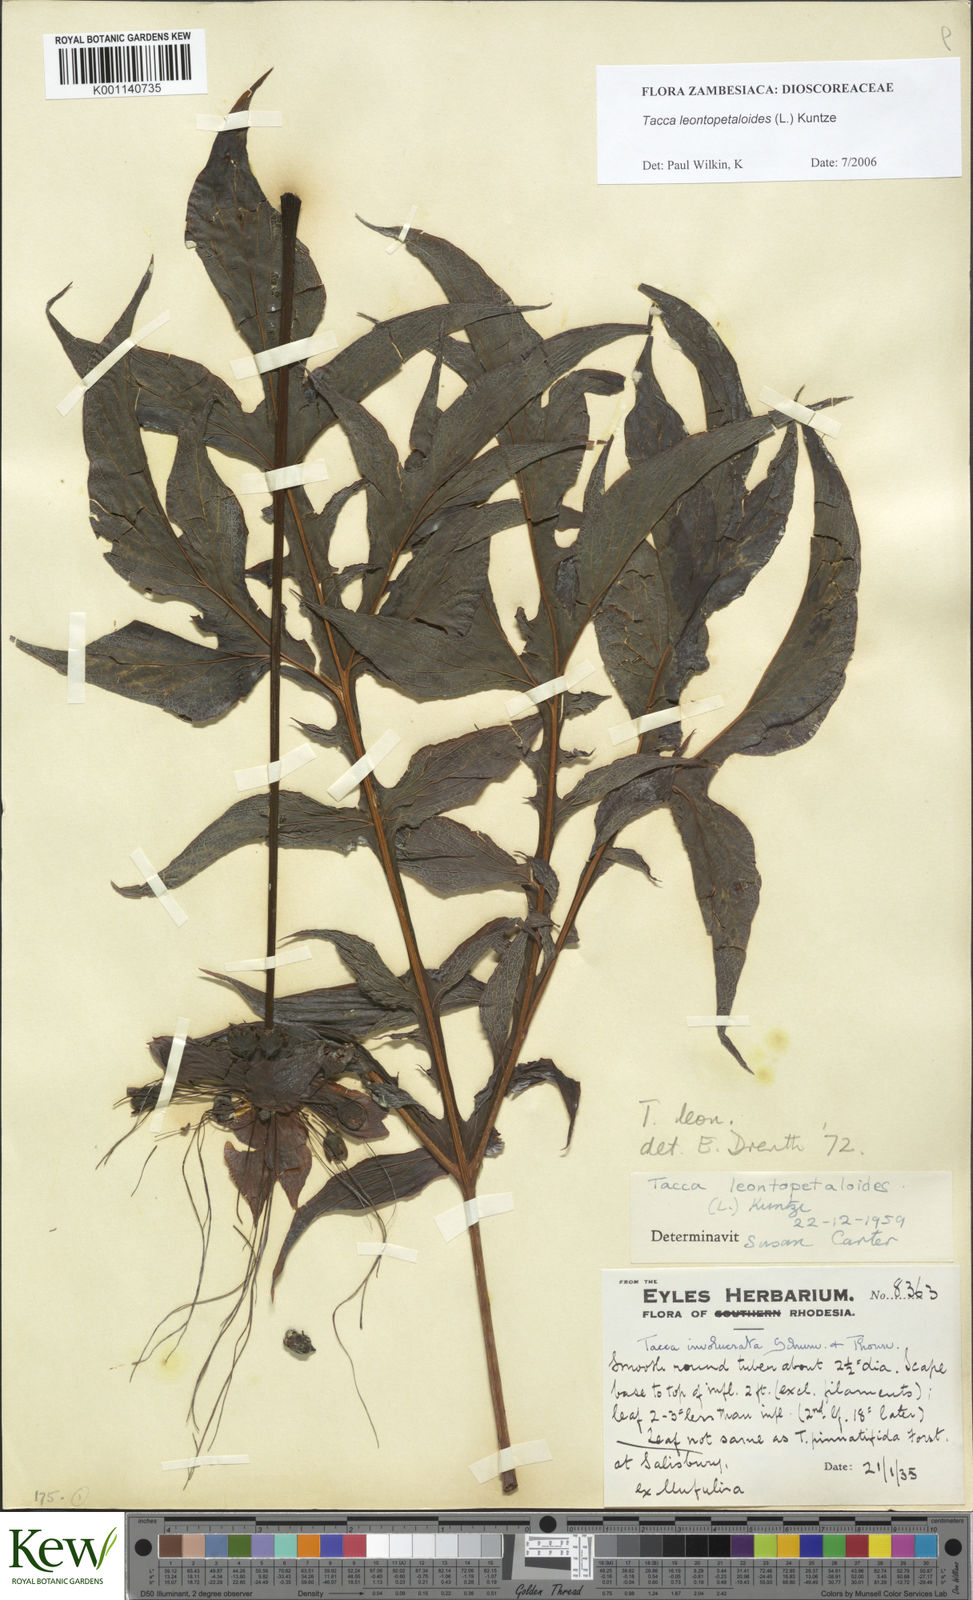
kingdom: Plantae
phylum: Tracheophyta
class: Liliopsida
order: Dioscoreales
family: Dioscoreaceae
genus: Tacca
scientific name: Tacca leontopetaloides
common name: Arrowroot
